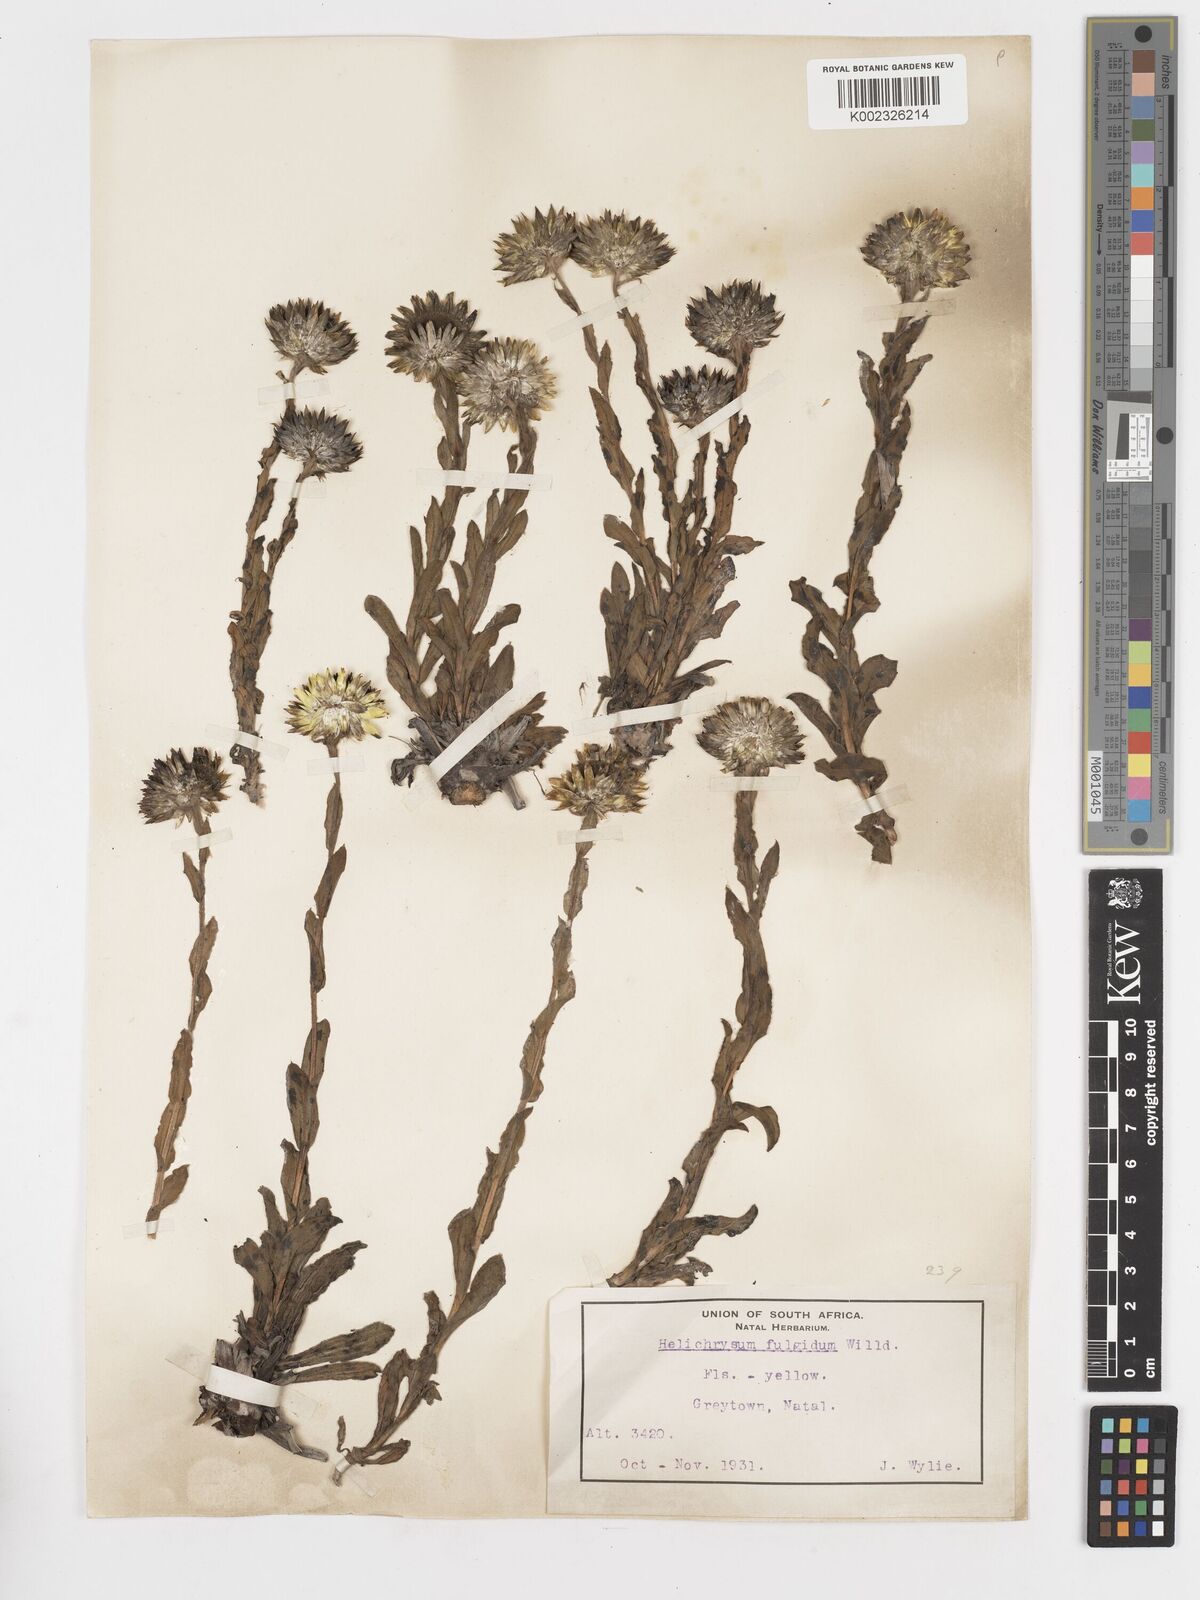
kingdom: Plantae
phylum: Tracheophyta
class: Magnoliopsida
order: Asterales
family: Asteraceae
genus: Helichrysum
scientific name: Helichrysum aureum
